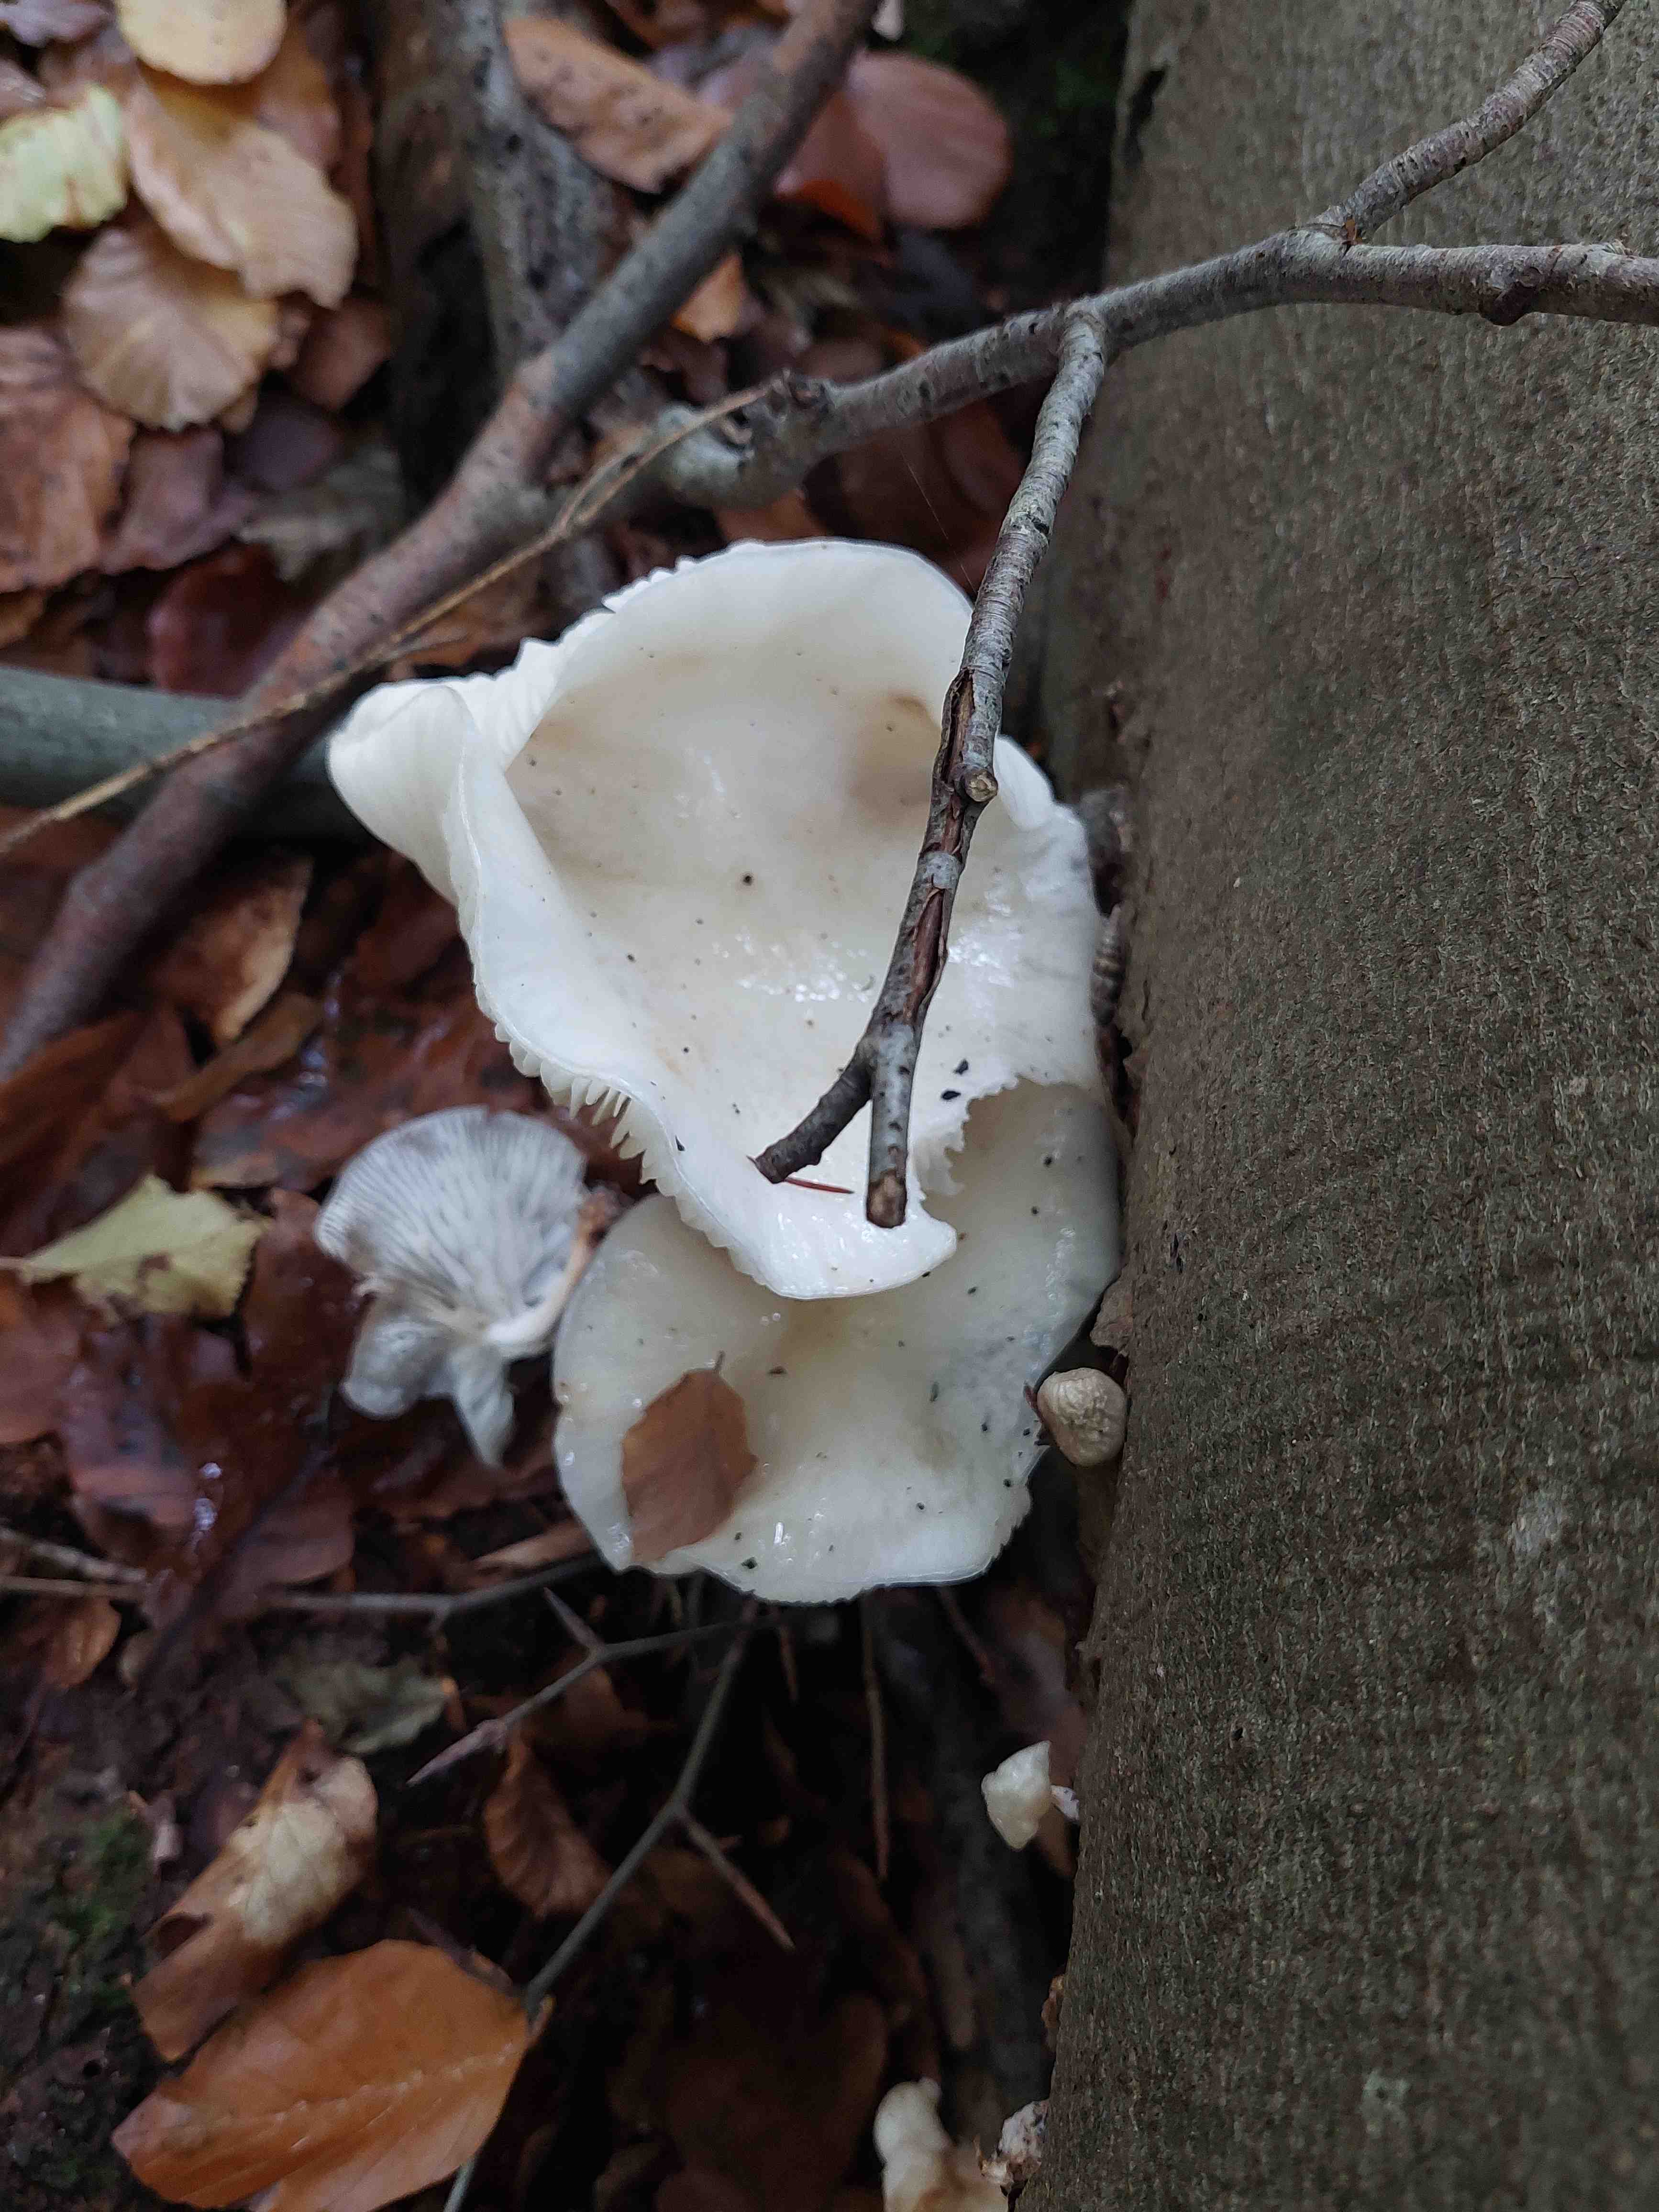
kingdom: Fungi
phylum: Basidiomycota
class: Agaricomycetes
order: Agaricales
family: Pleurotaceae
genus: Pleurotus
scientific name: Pleurotus pulmonarius
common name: sommer-østershat
